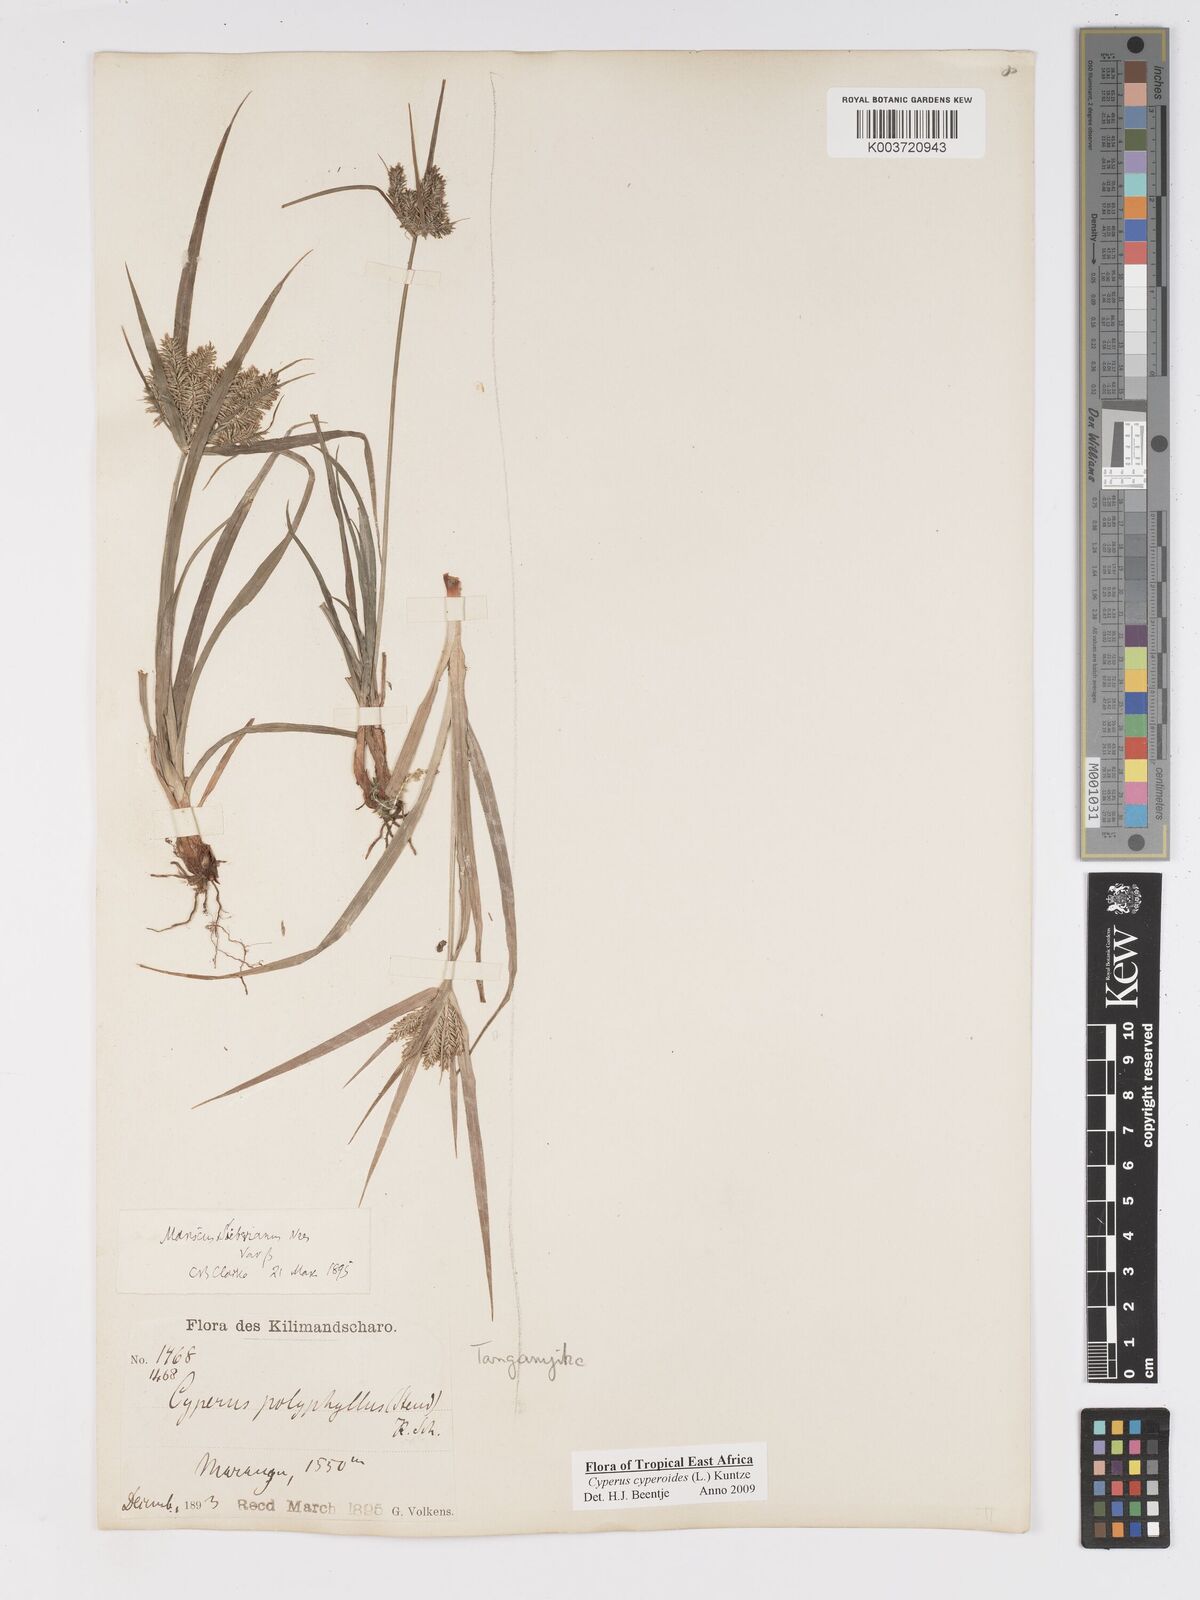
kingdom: Plantae
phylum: Tracheophyta
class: Liliopsida
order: Poales
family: Cyperaceae
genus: Cyperus
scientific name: Cyperus macrocarpus
